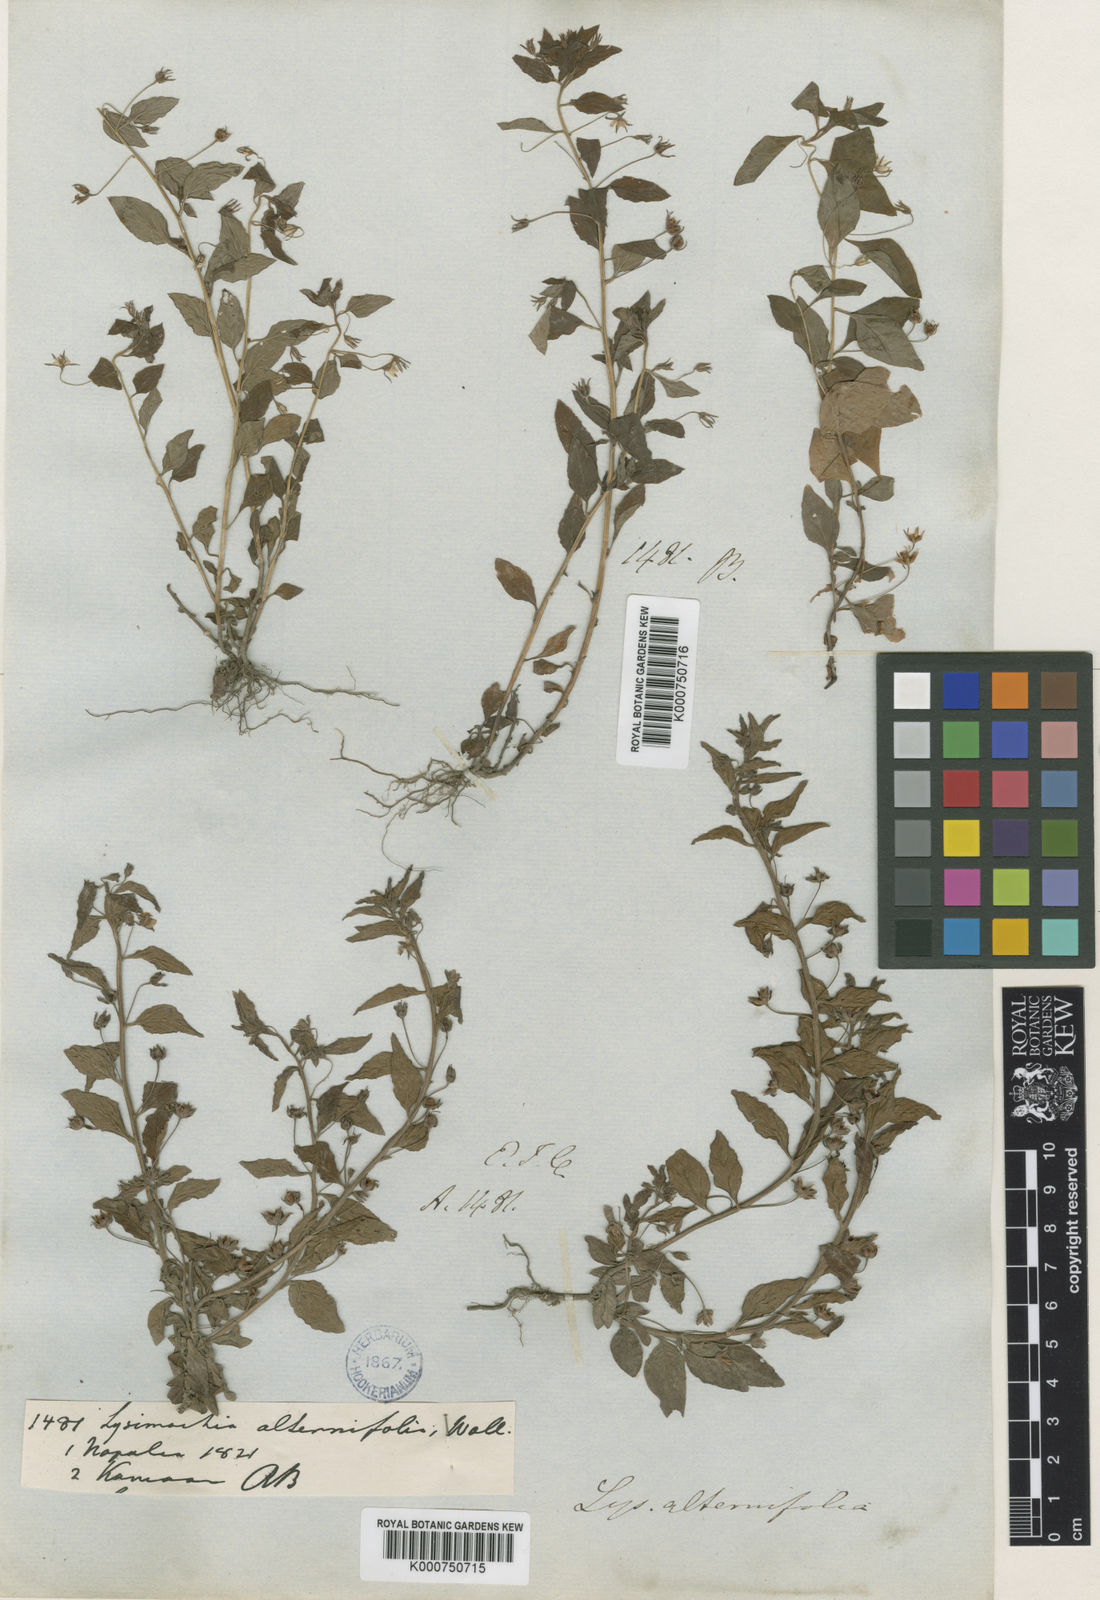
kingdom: Plantae
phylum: Tracheophyta
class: Magnoliopsida
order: Ericales
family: Primulaceae
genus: Lysimachia
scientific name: Lysimachia tetragona
